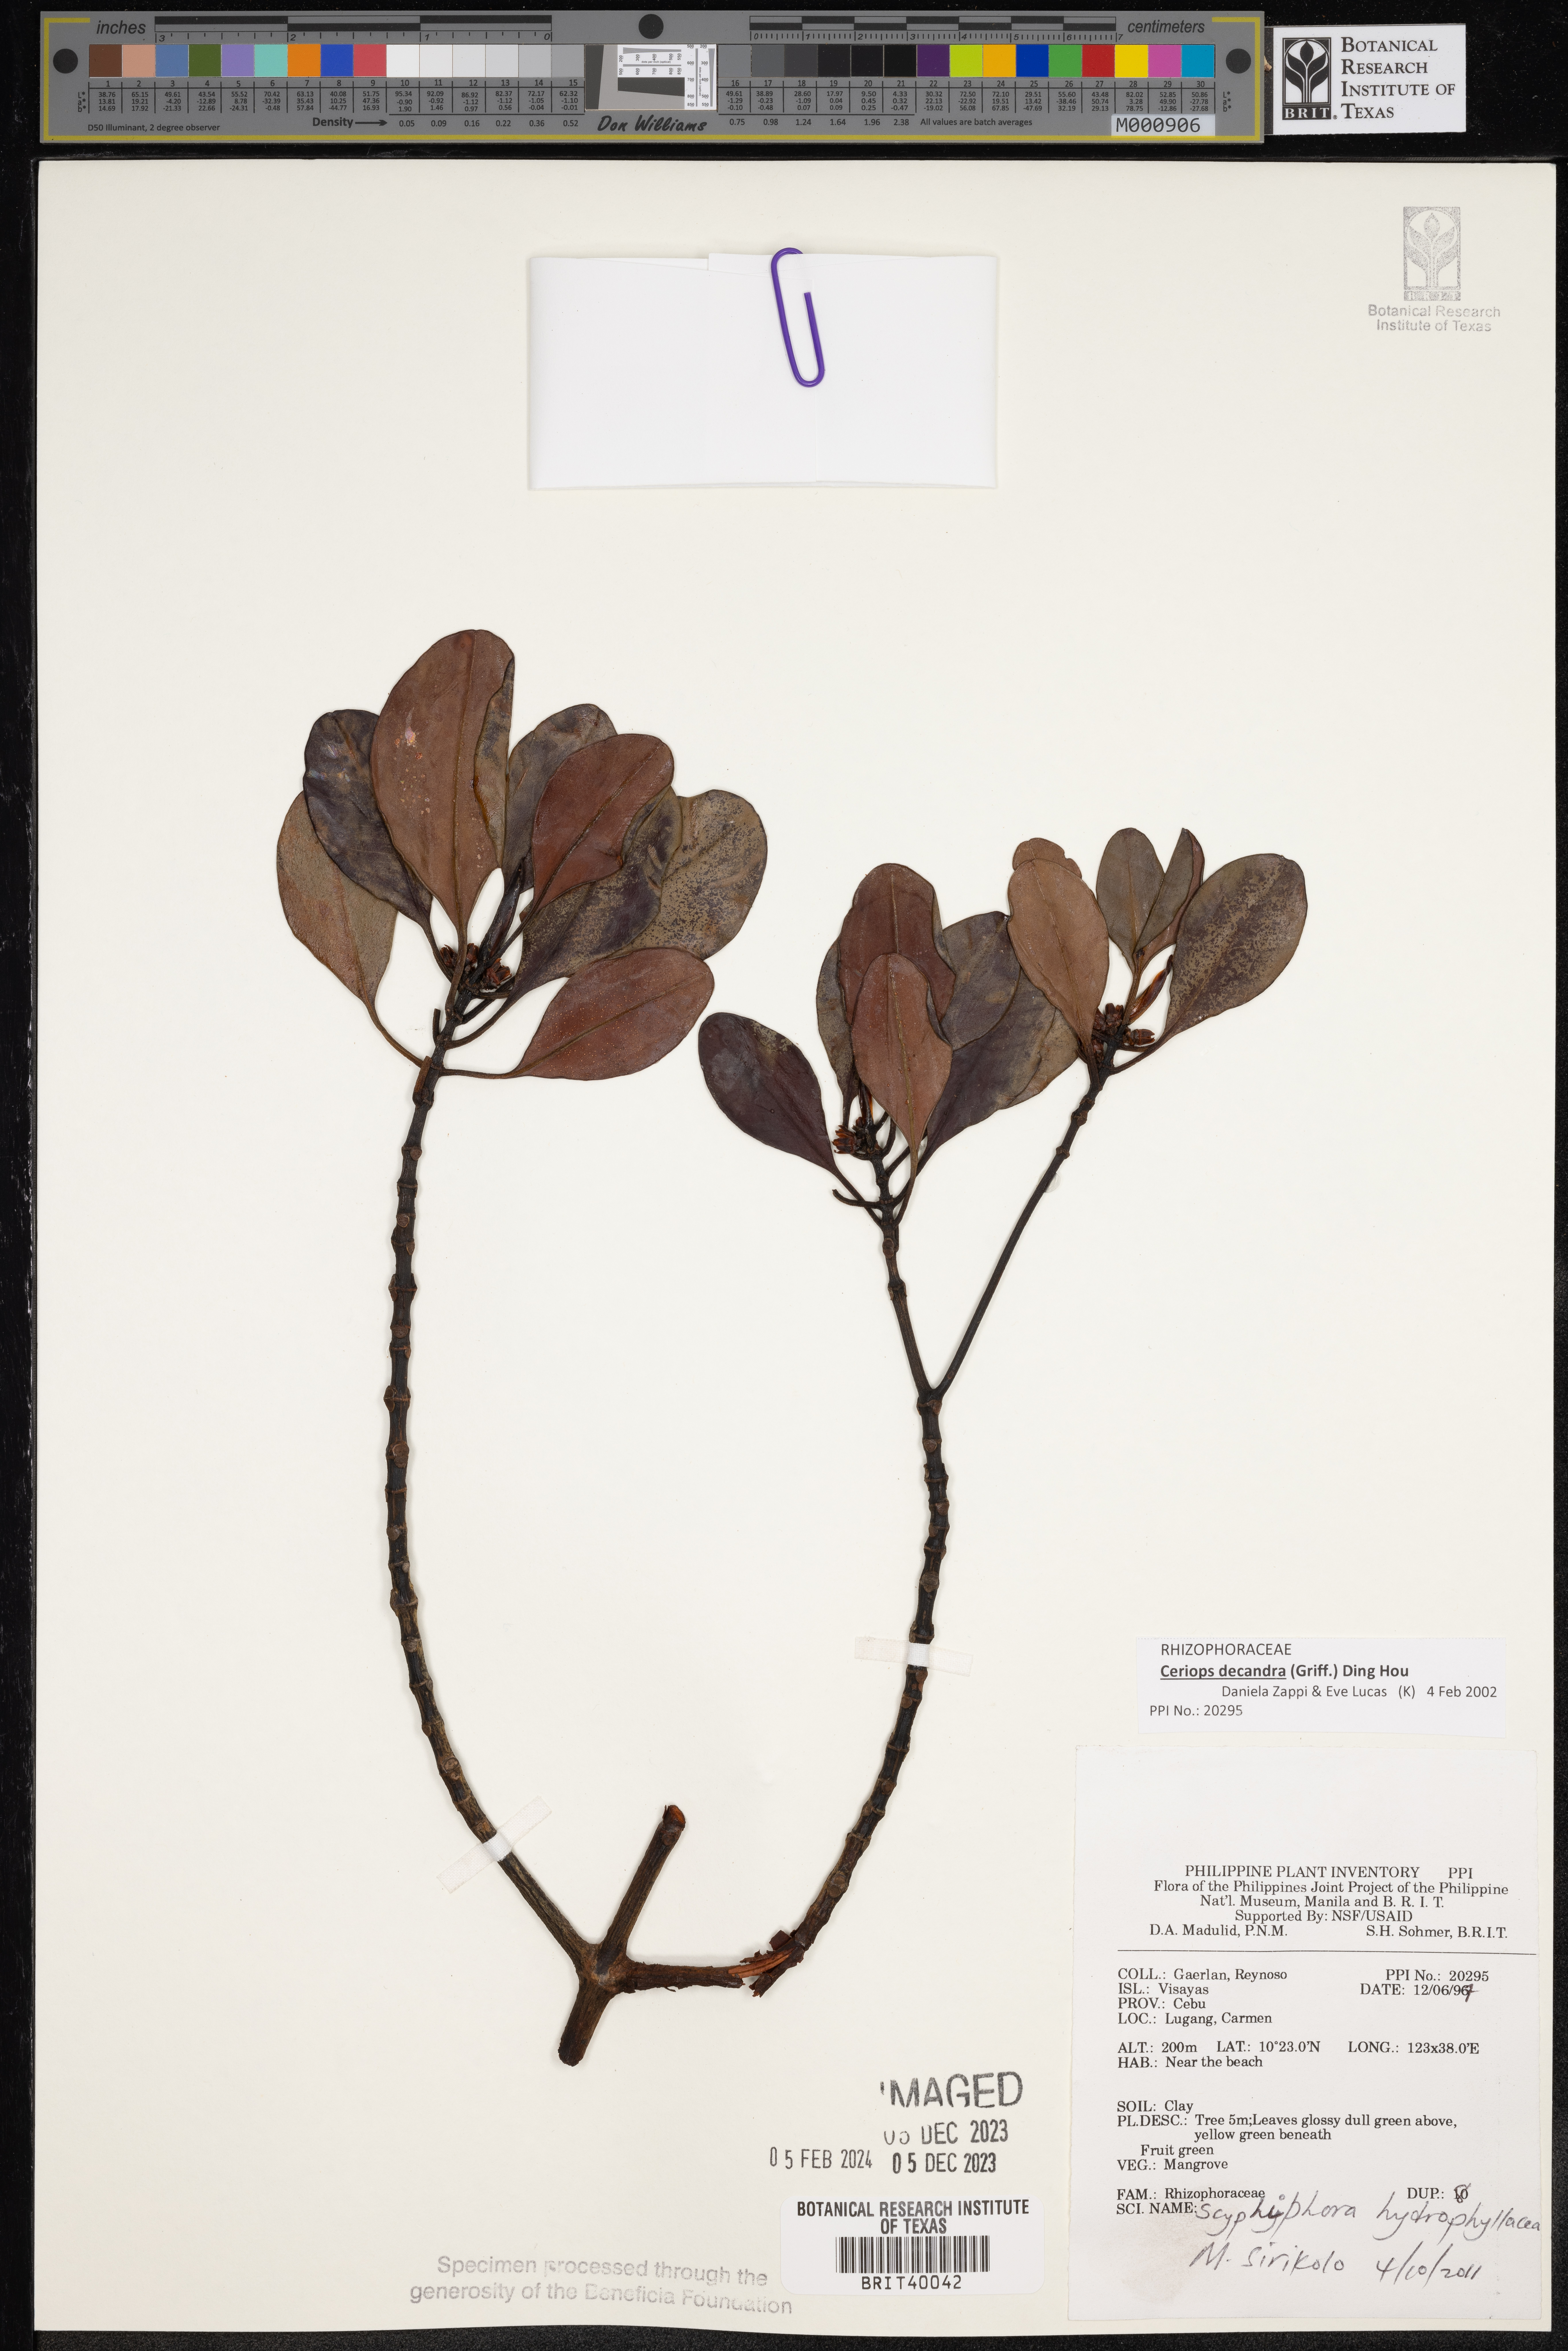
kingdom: Plantae
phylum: Tracheophyta
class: Magnoliopsida
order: Gentianales
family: Rubiaceae
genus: Scyphiphora
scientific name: Scyphiphora hydrophylacea
